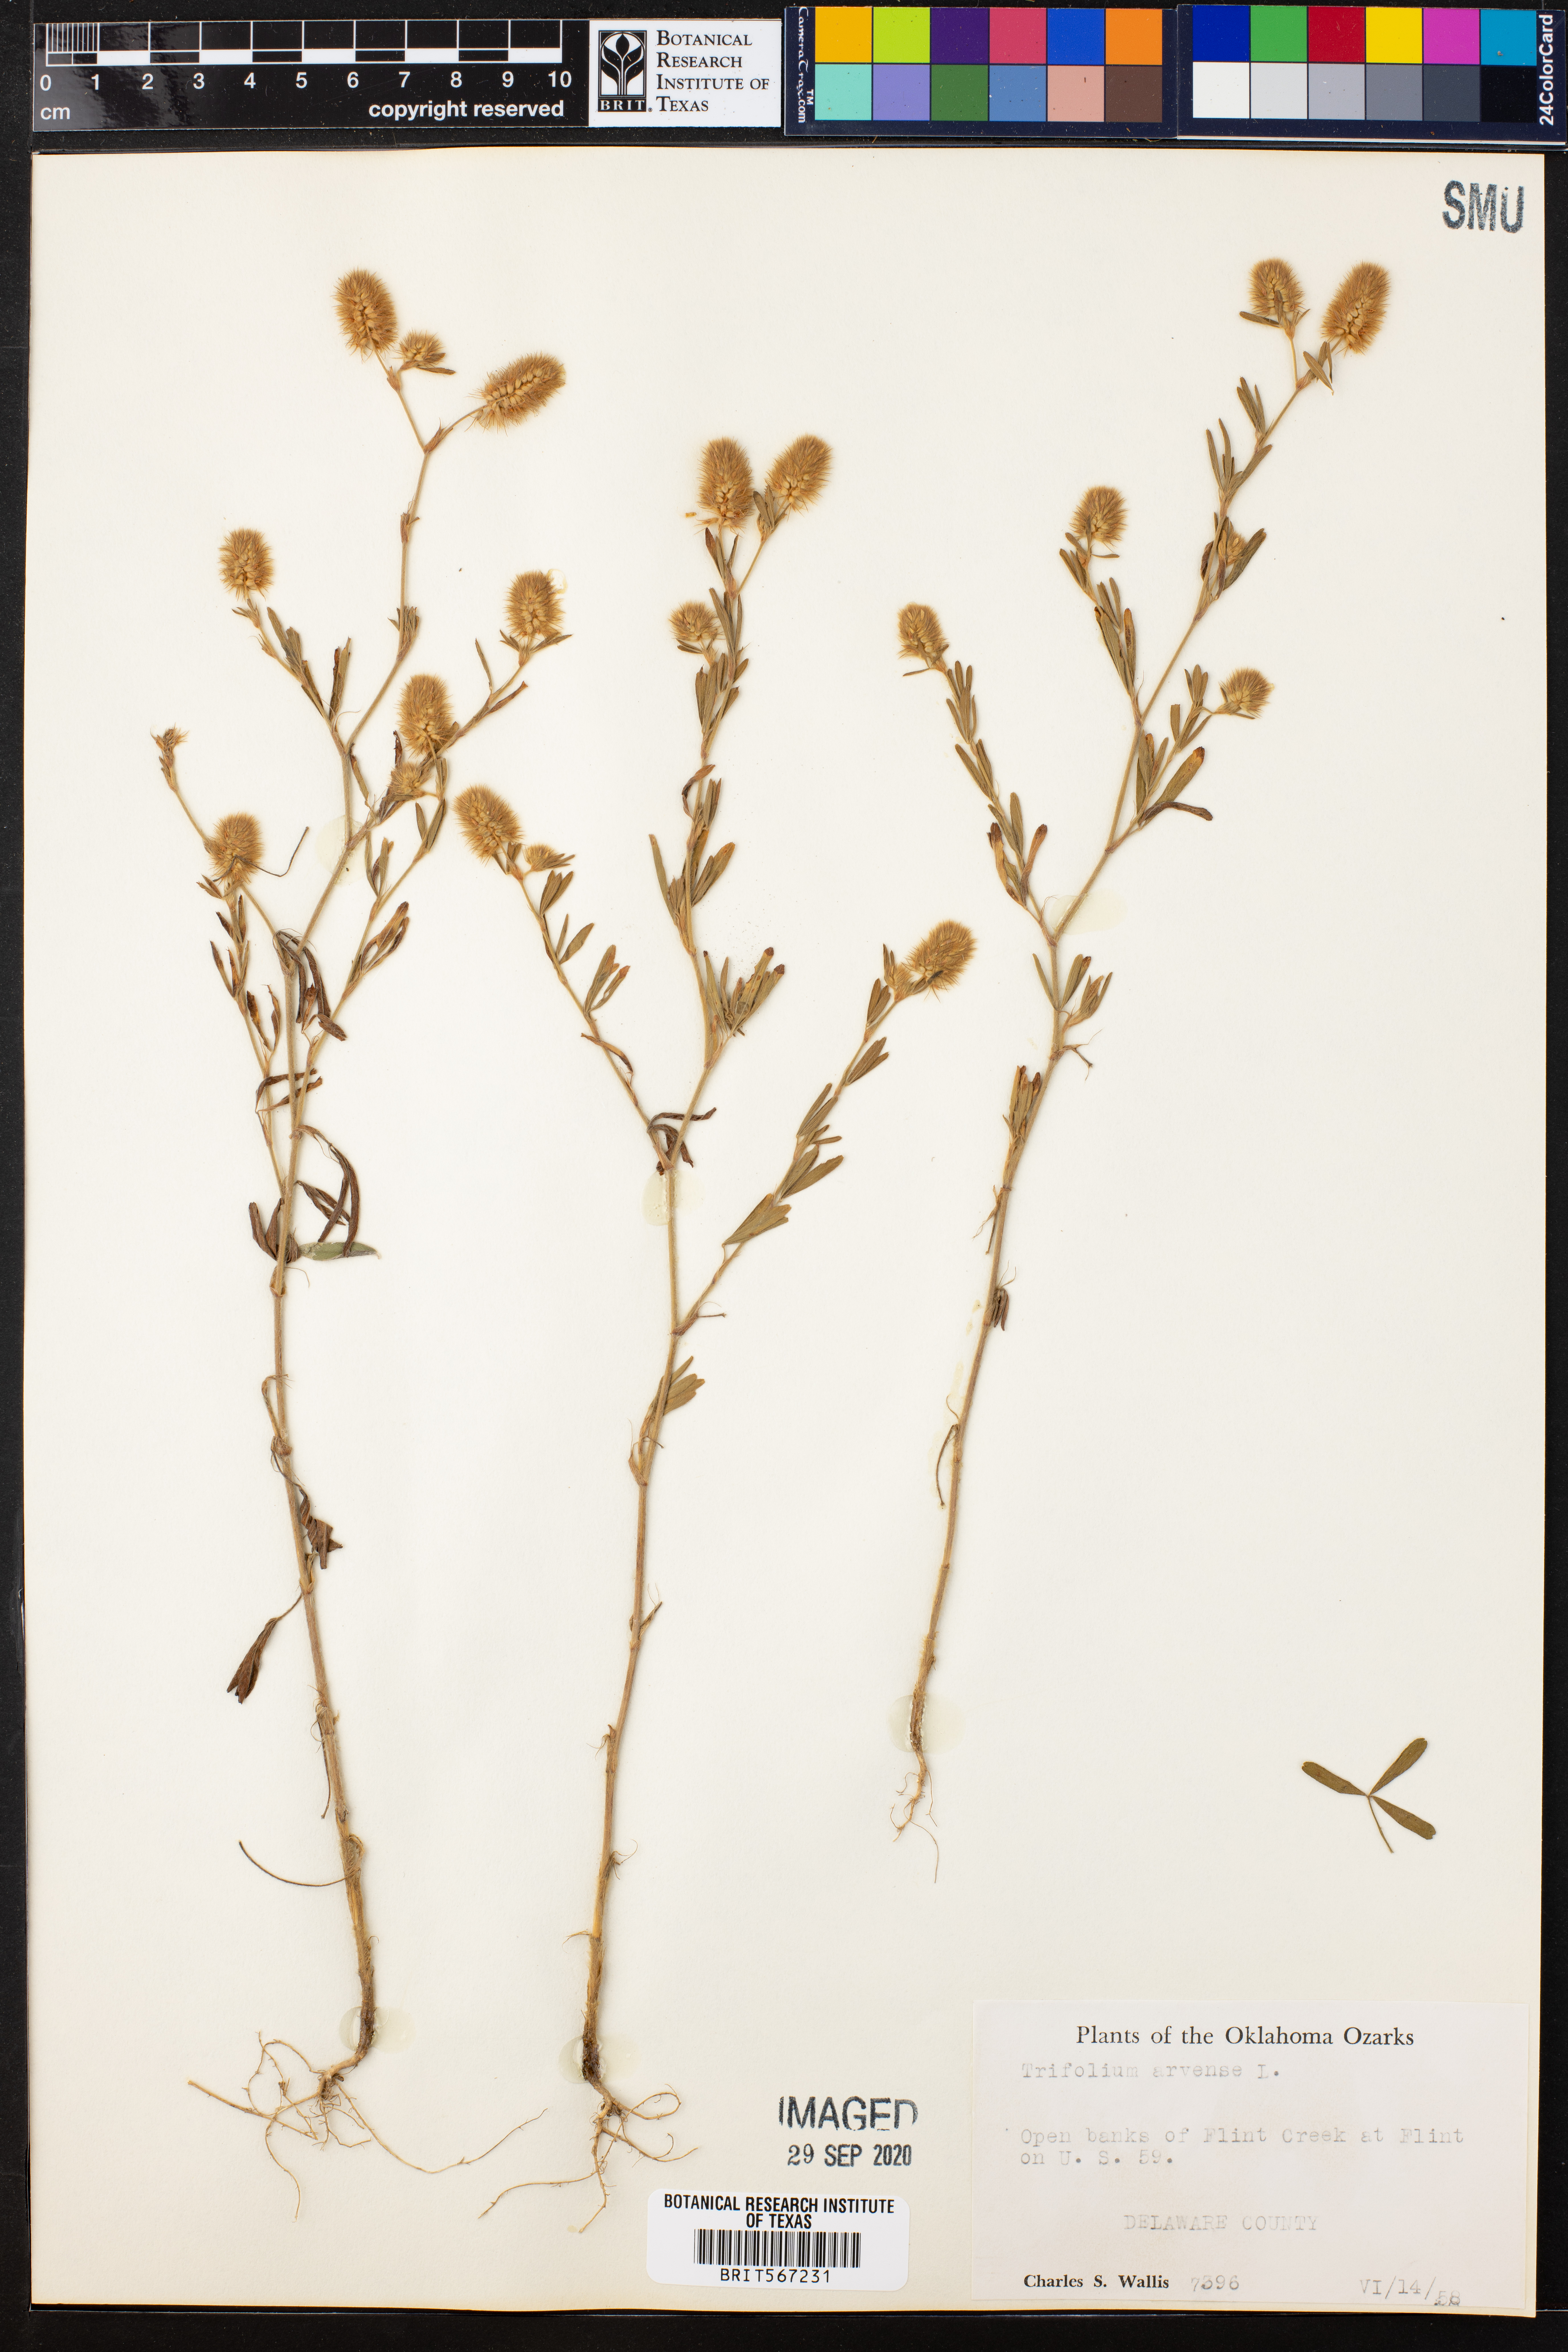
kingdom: Plantae
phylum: Tracheophyta
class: Magnoliopsida
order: Fabales
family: Fabaceae
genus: Trifolium
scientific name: Trifolium arvense
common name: Hare's-foot clover
